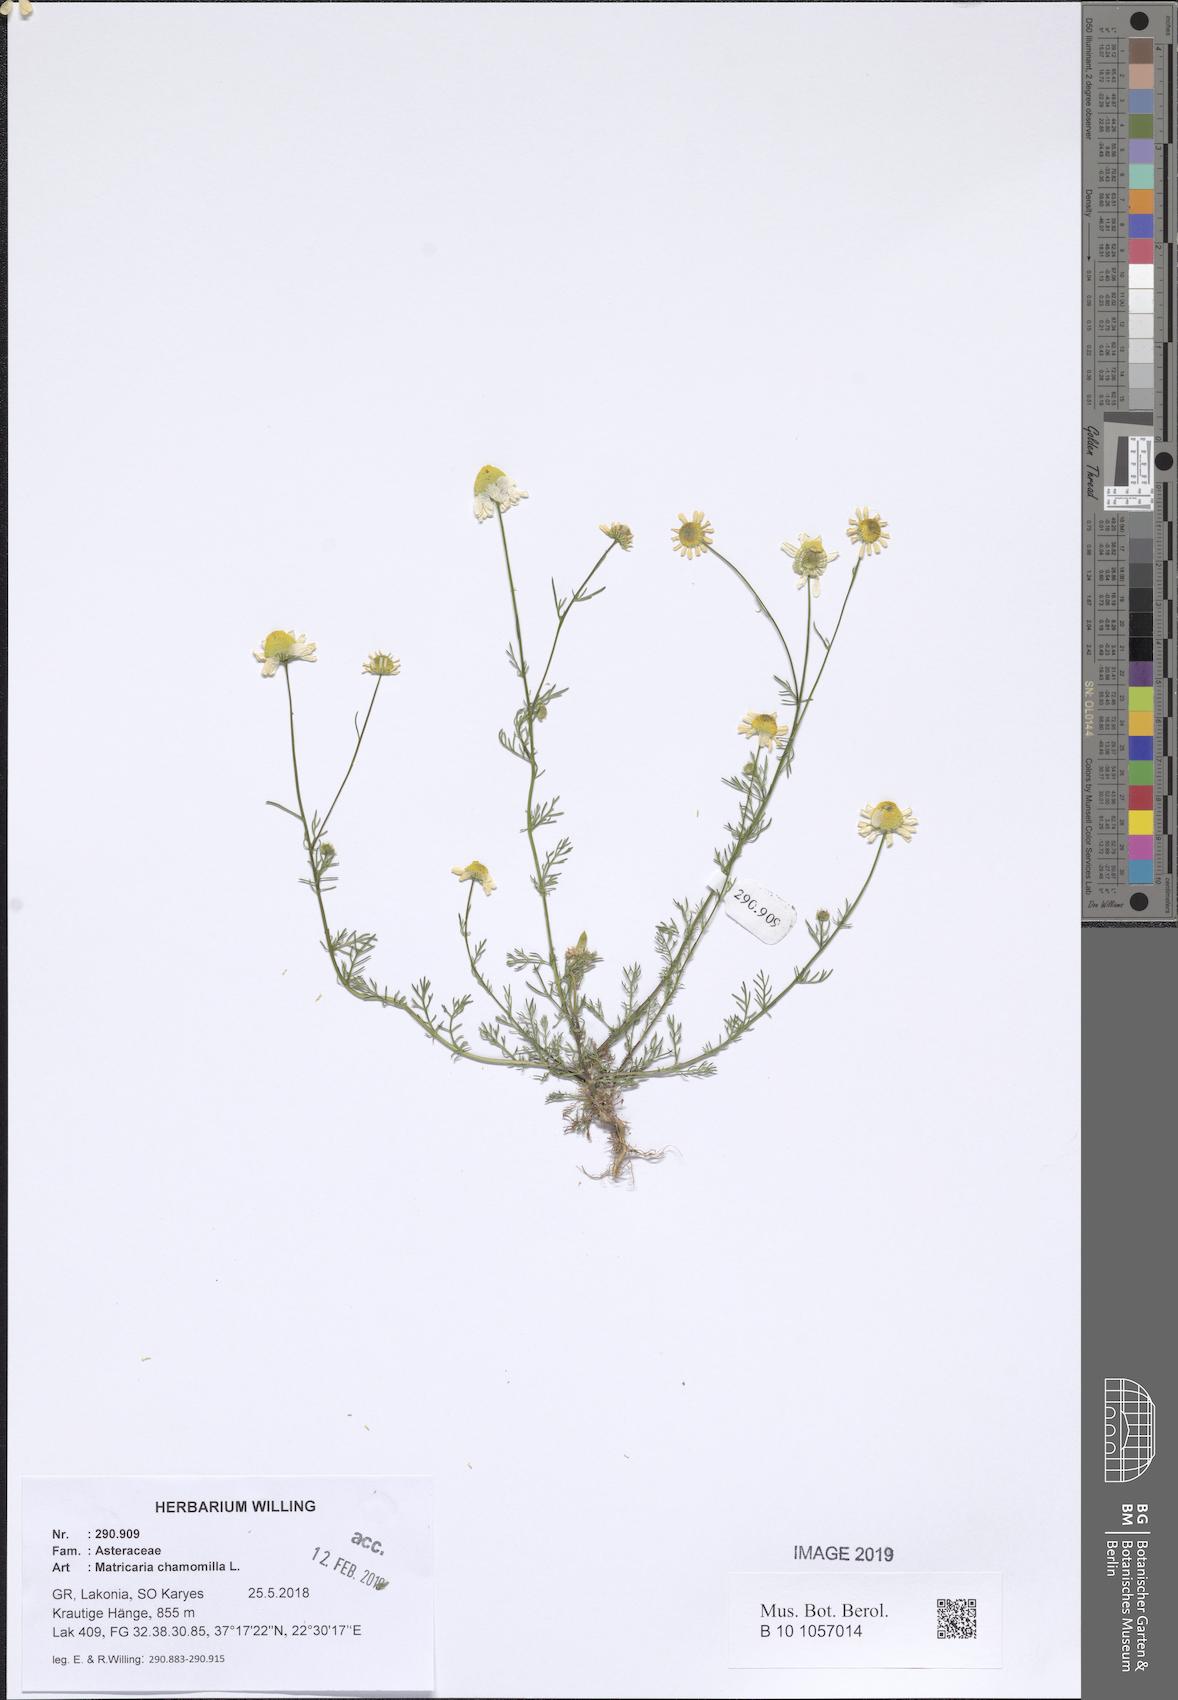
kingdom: Plantae
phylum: Tracheophyta
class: Magnoliopsida
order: Asterales
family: Asteraceae
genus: Matricaria
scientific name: Matricaria chamomilla
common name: Scented mayweed
